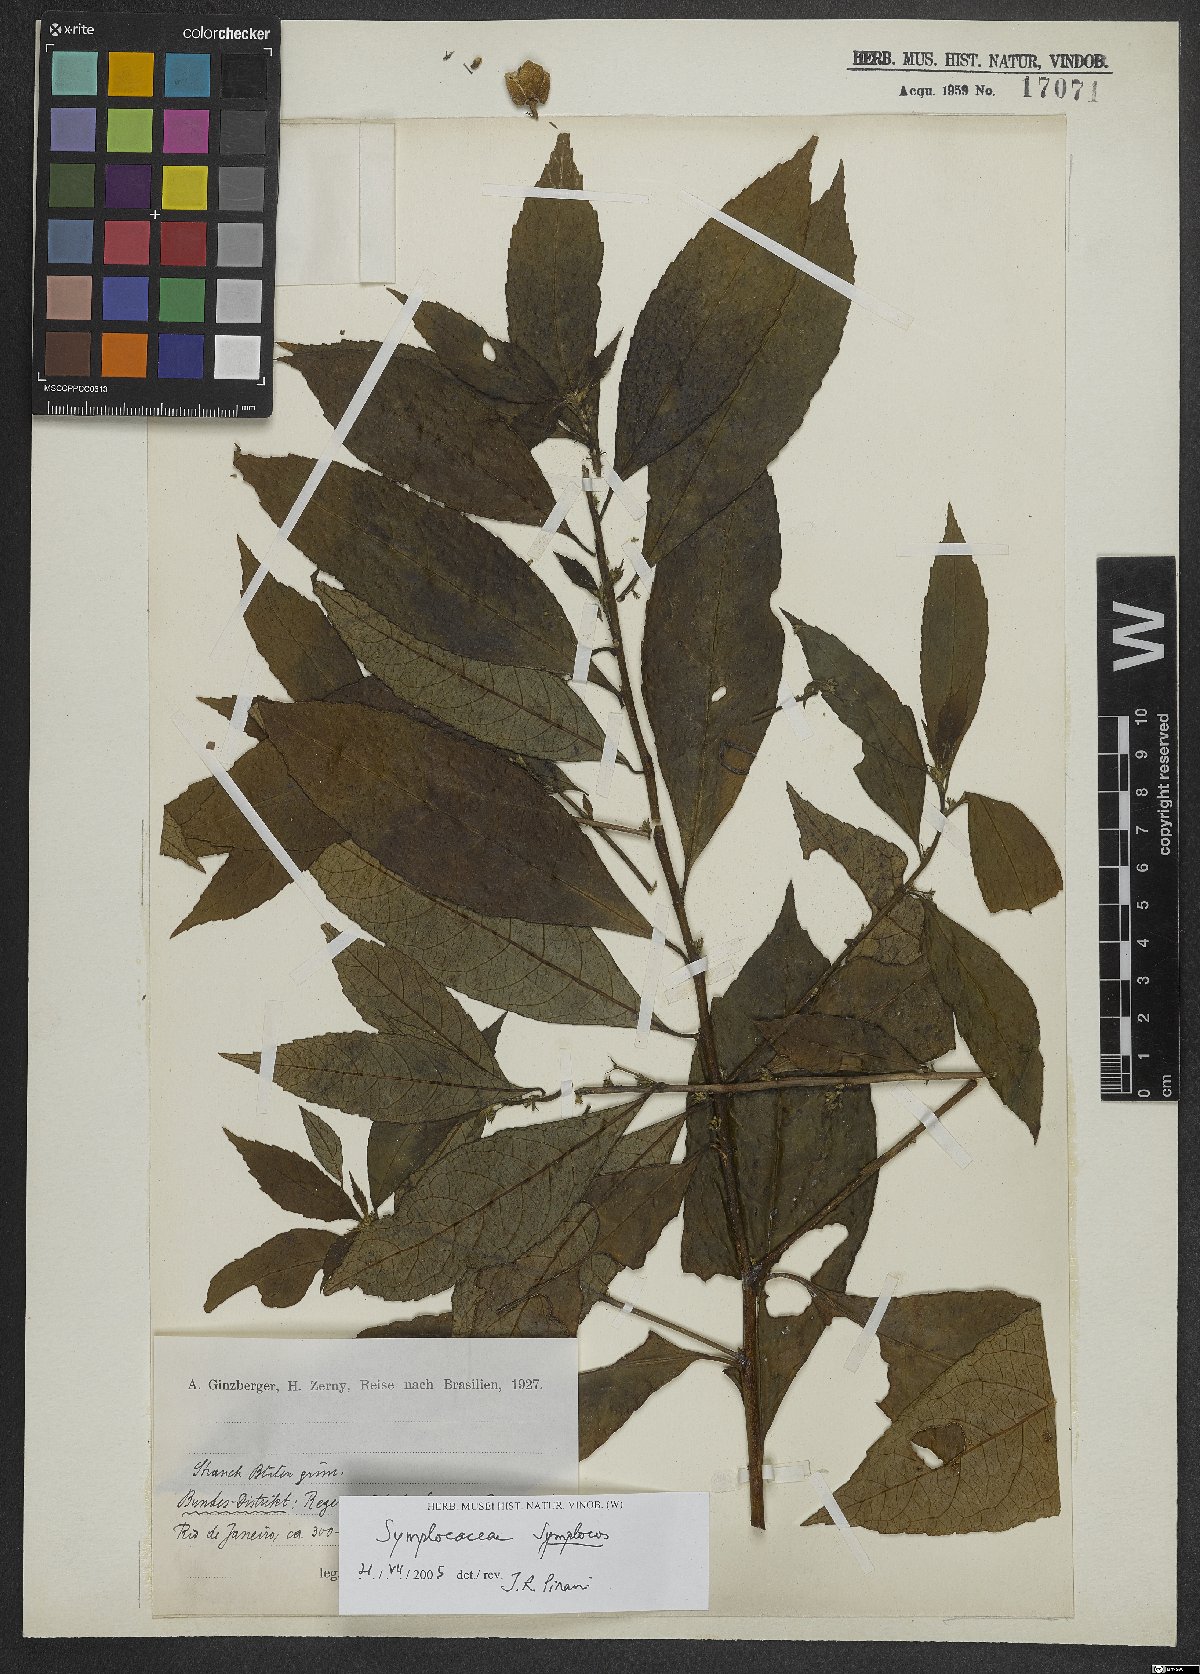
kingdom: Plantae
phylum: Tracheophyta
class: Magnoliopsida
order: Ericales
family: Symplocaceae
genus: Symplocos
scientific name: Symplocos
